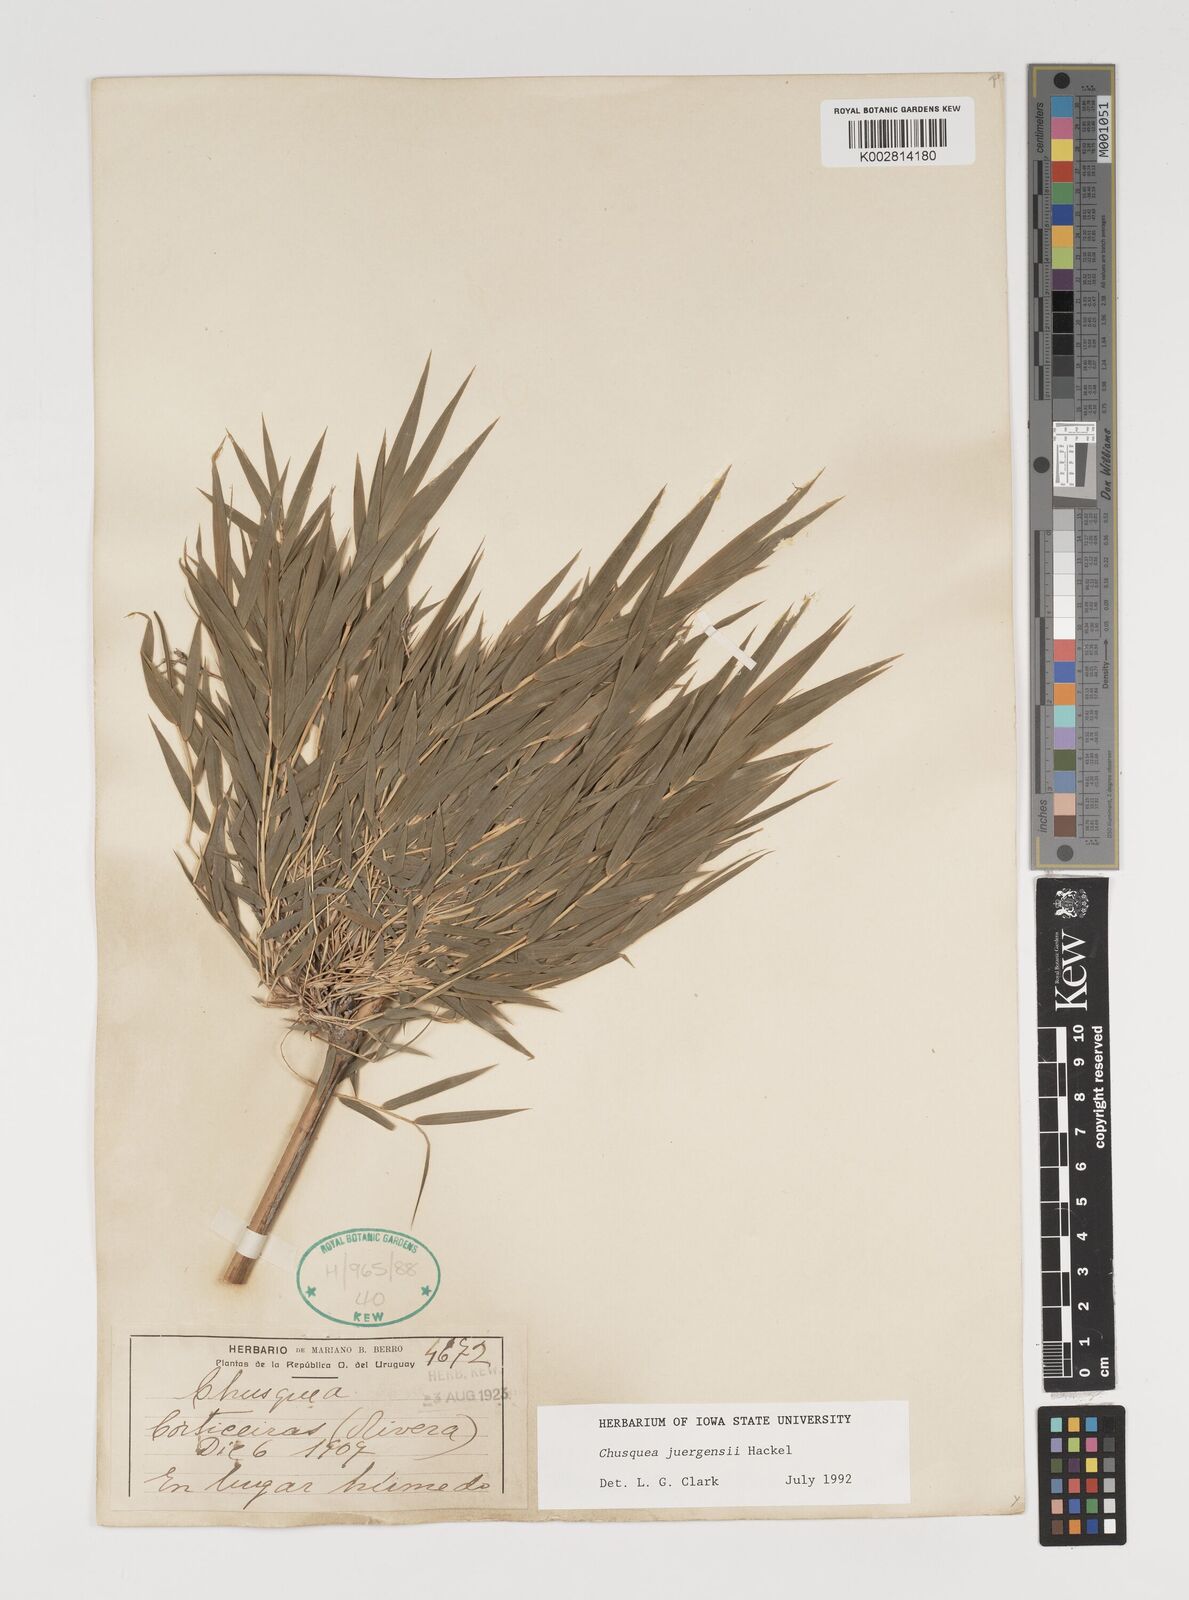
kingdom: Plantae
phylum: Tracheophyta
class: Liliopsida
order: Poales
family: Poaceae
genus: Chusquea
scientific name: Chusquea juergensii
